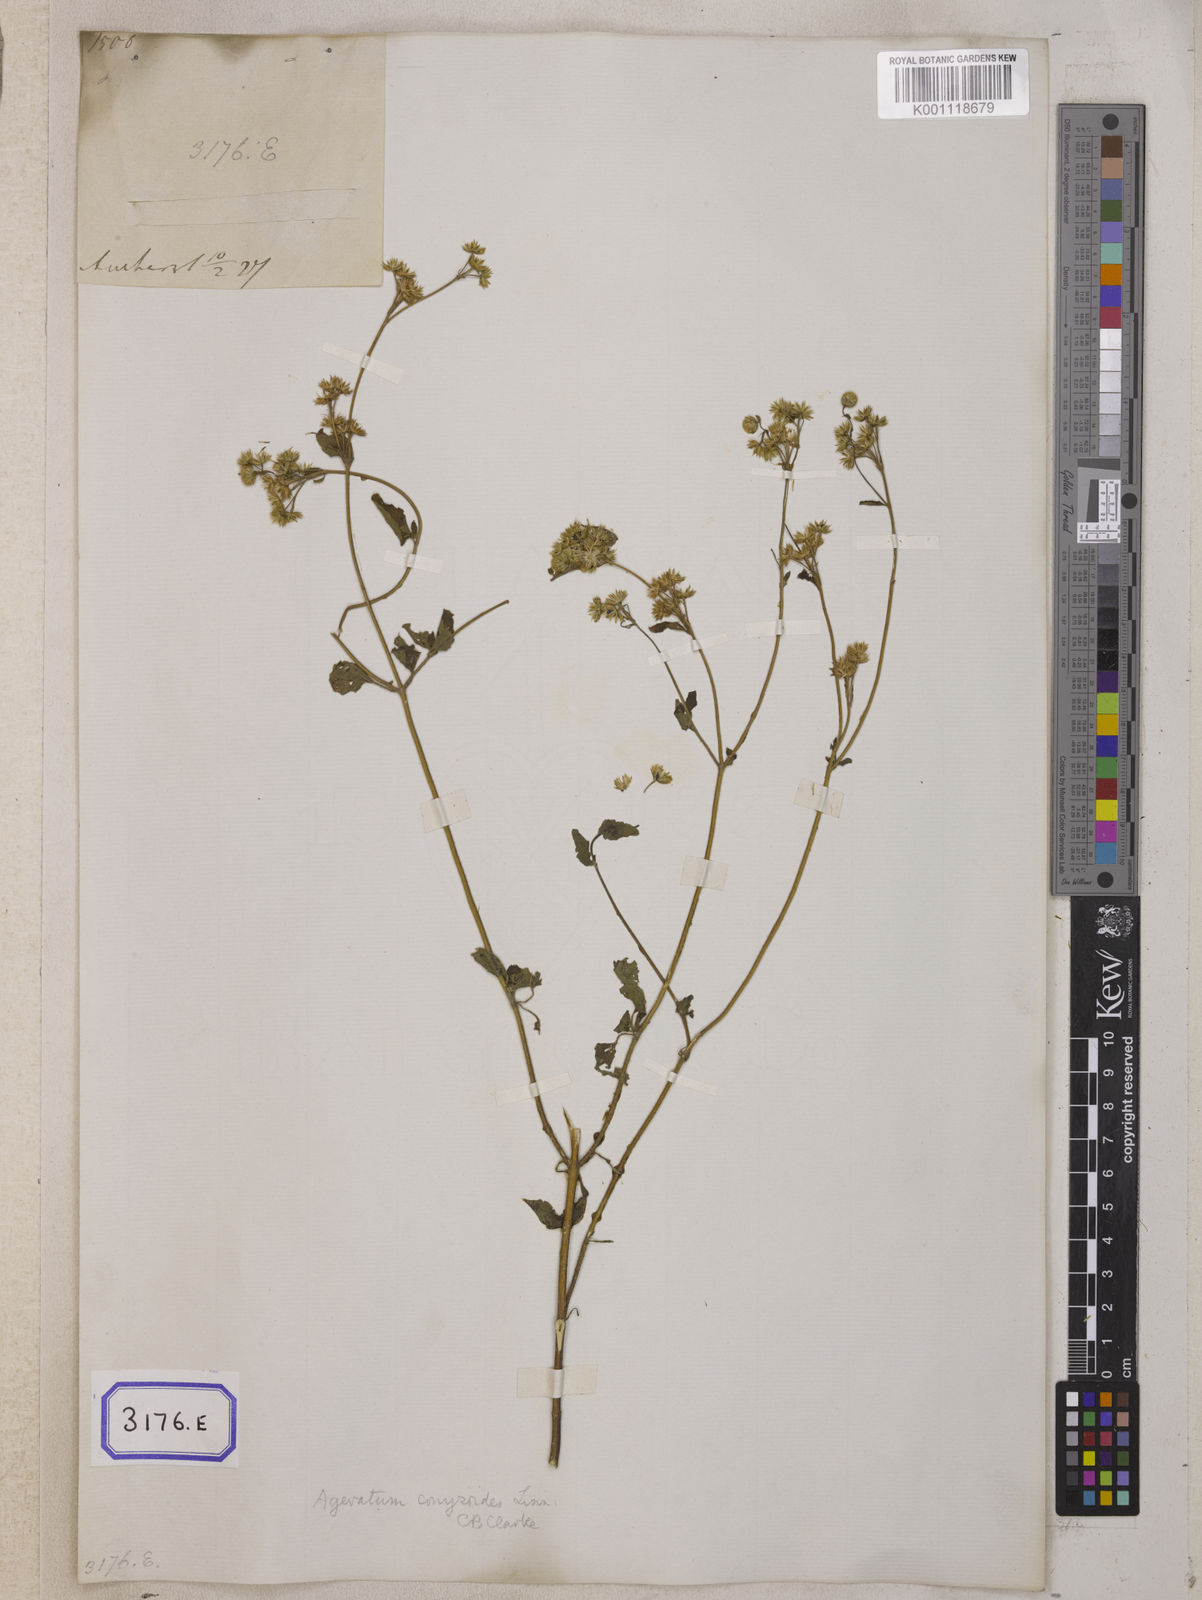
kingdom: Plantae
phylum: Tracheophyta
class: Magnoliopsida
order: Asterales
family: Asteraceae
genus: Ageratum
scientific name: Ageratum conyzoides
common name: Tropical whiteweed
